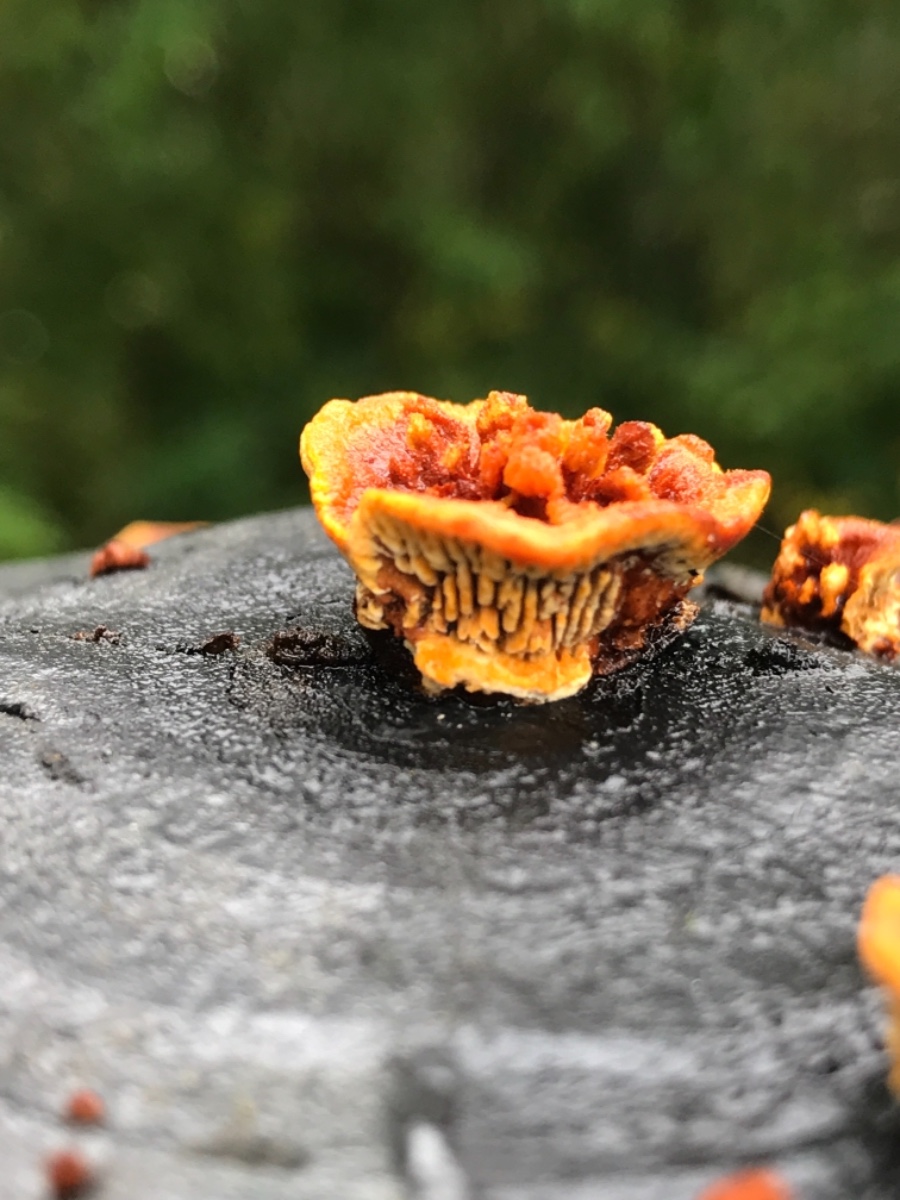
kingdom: Fungi
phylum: Basidiomycota
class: Agaricomycetes
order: Gloeophyllales
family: Gloeophyllaceae
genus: Gloeophyllum
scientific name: Gloeophyllum sepiarium
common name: fyrre-korkhat
